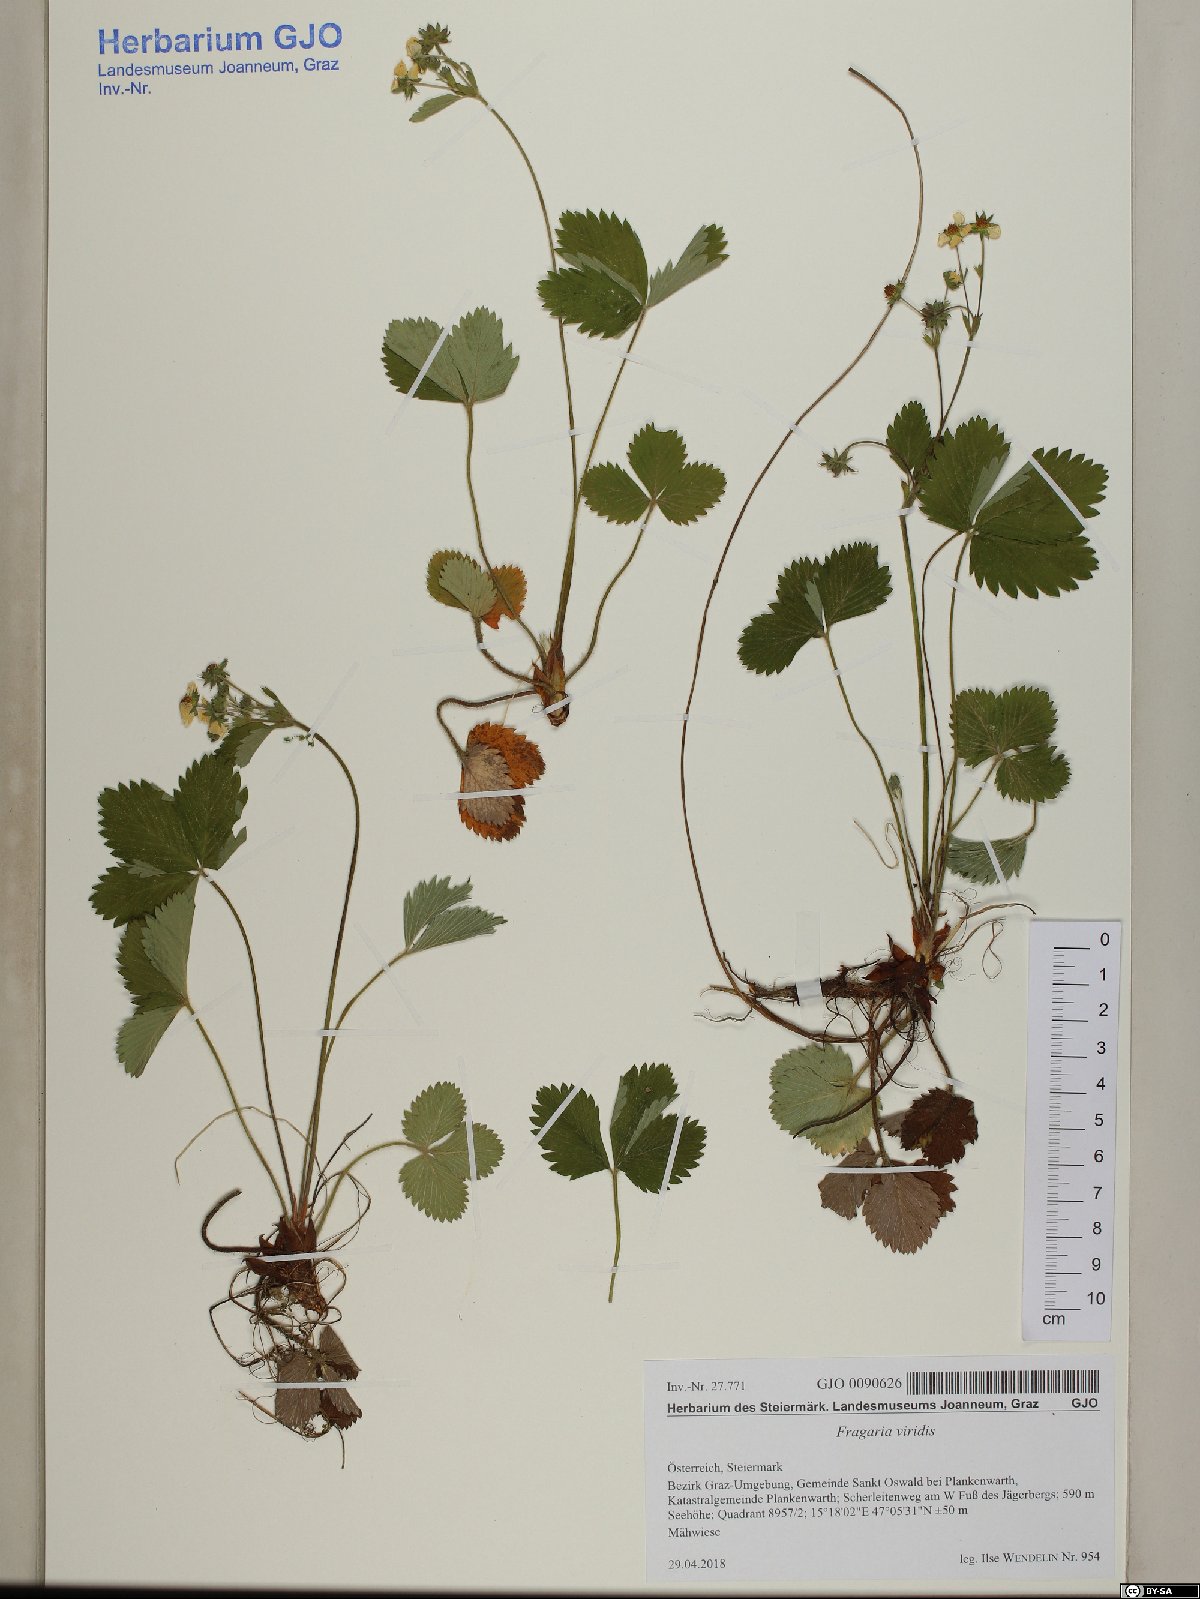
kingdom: Plantae
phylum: Tracheophyta
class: Magnoliopsida
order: Rosales
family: Rosaceae
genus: Fragaria
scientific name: Fragaria viridis
